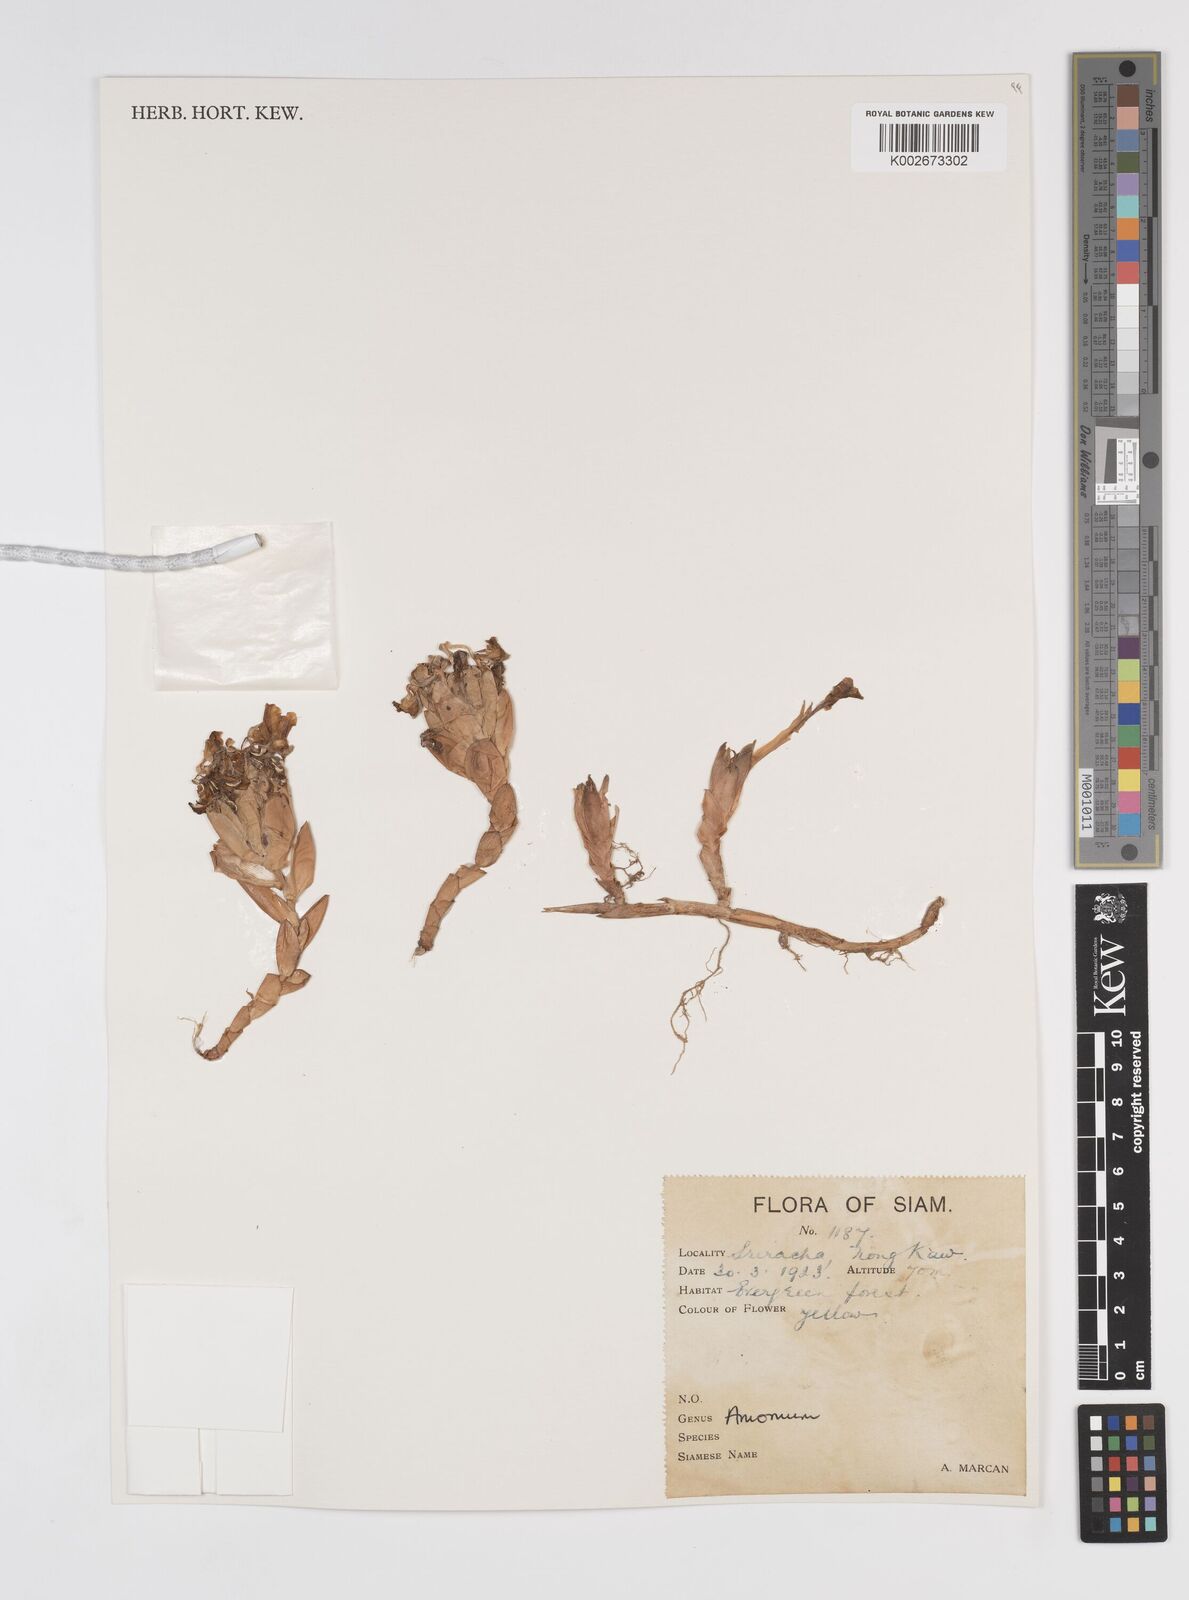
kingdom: Plantae
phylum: Tracheophyta
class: Liliopsida
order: Zingiberales
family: Zingiberaceae
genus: Amomum
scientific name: Amomum
